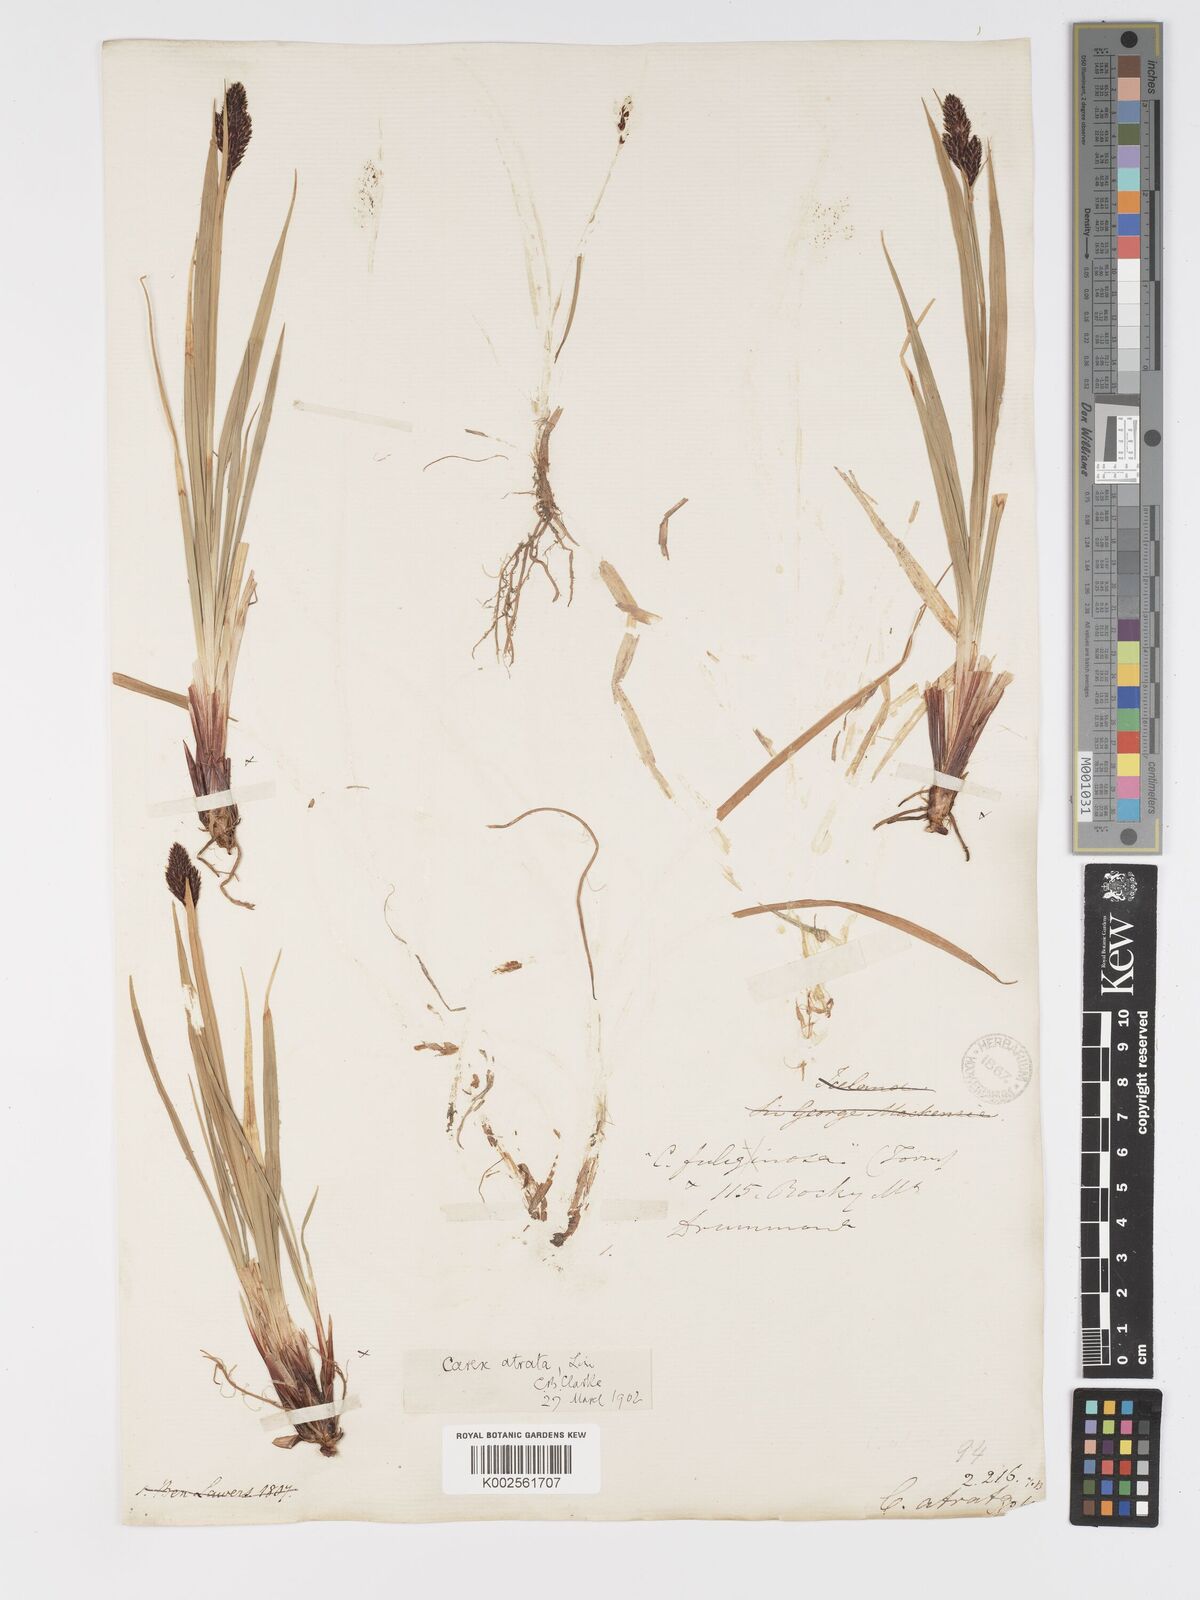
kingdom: Plantae
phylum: Tracheophyta
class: Liliopsida
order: Poales
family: Cyperaceae
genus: Carex
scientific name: Carex atrata
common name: Black alpine sedge
